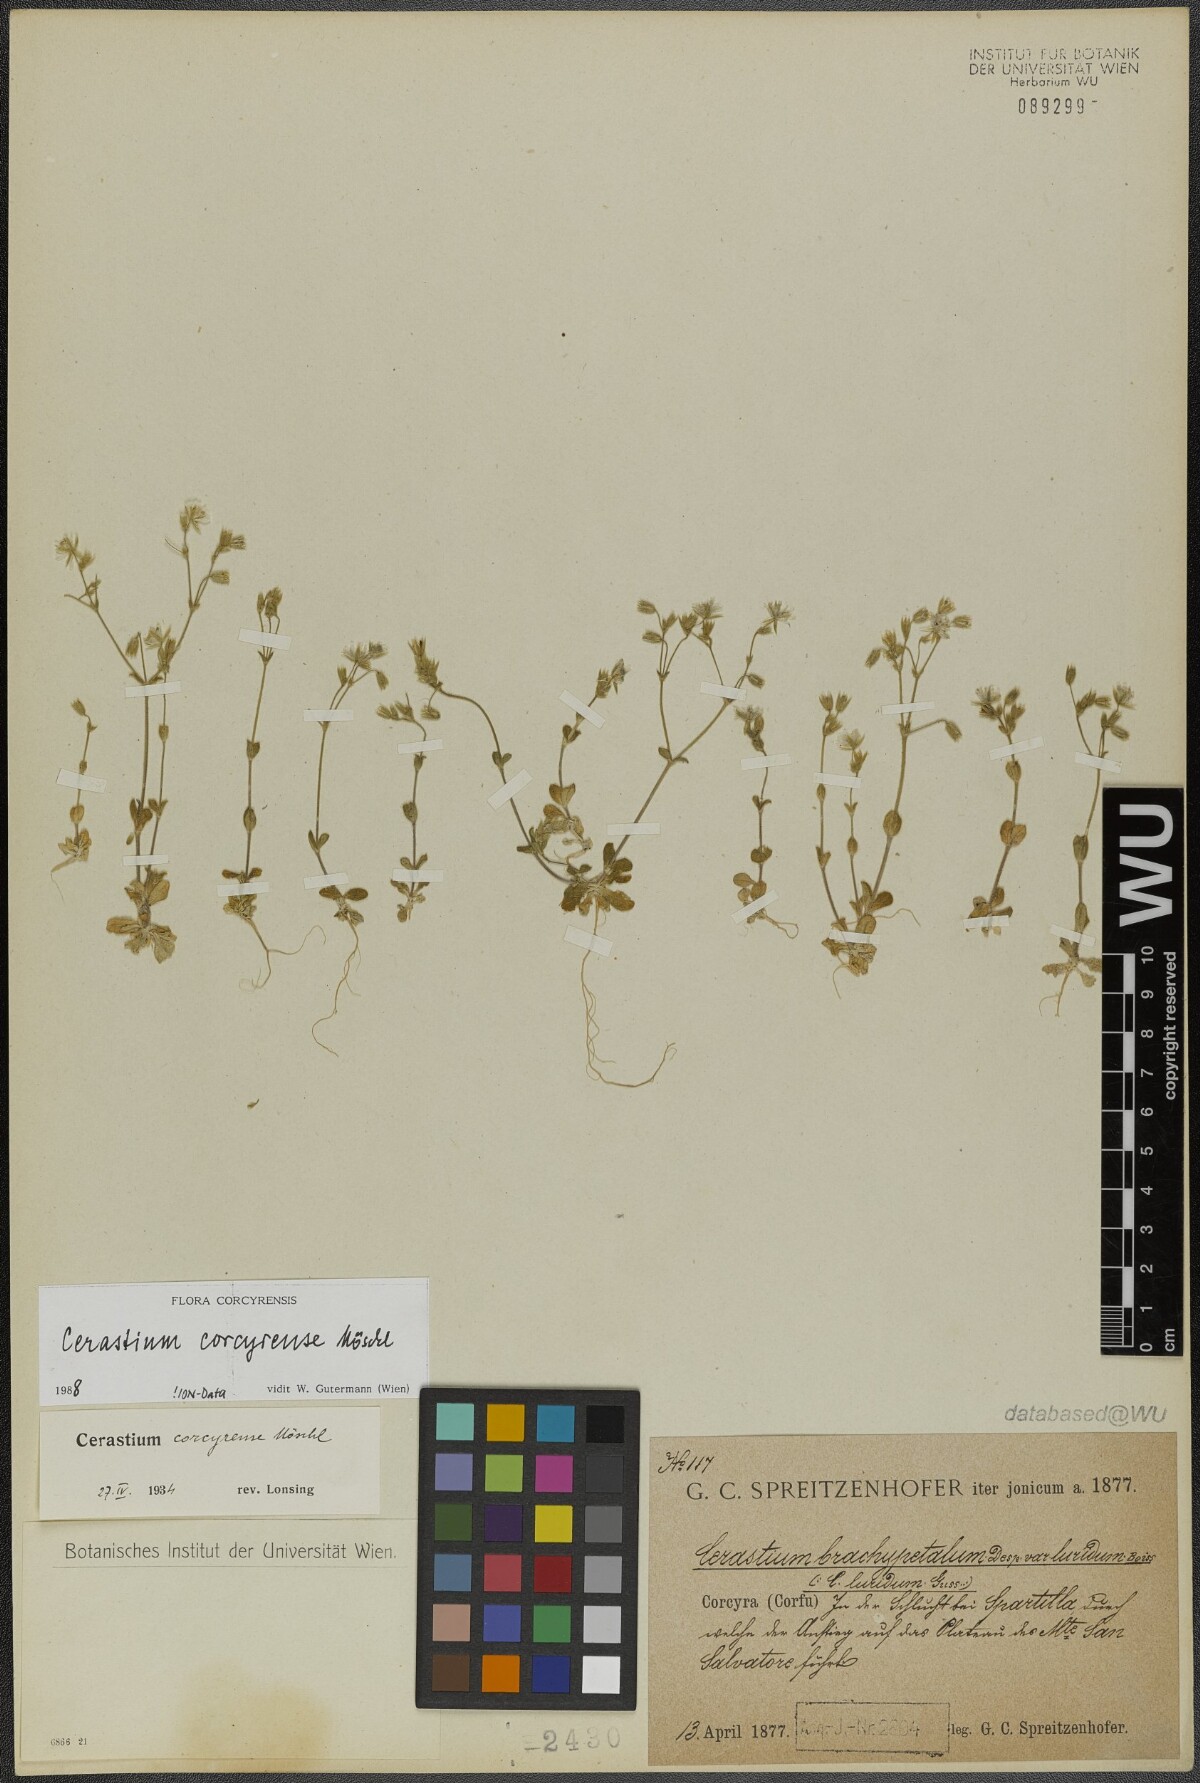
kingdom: Plantae
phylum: Tracheophyta
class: Magnoliopsida
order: Caryophyllales
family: Caryophyllaceae
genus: Cerastium
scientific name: Cerastium brachypetalum
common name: Grey mouse-ear
